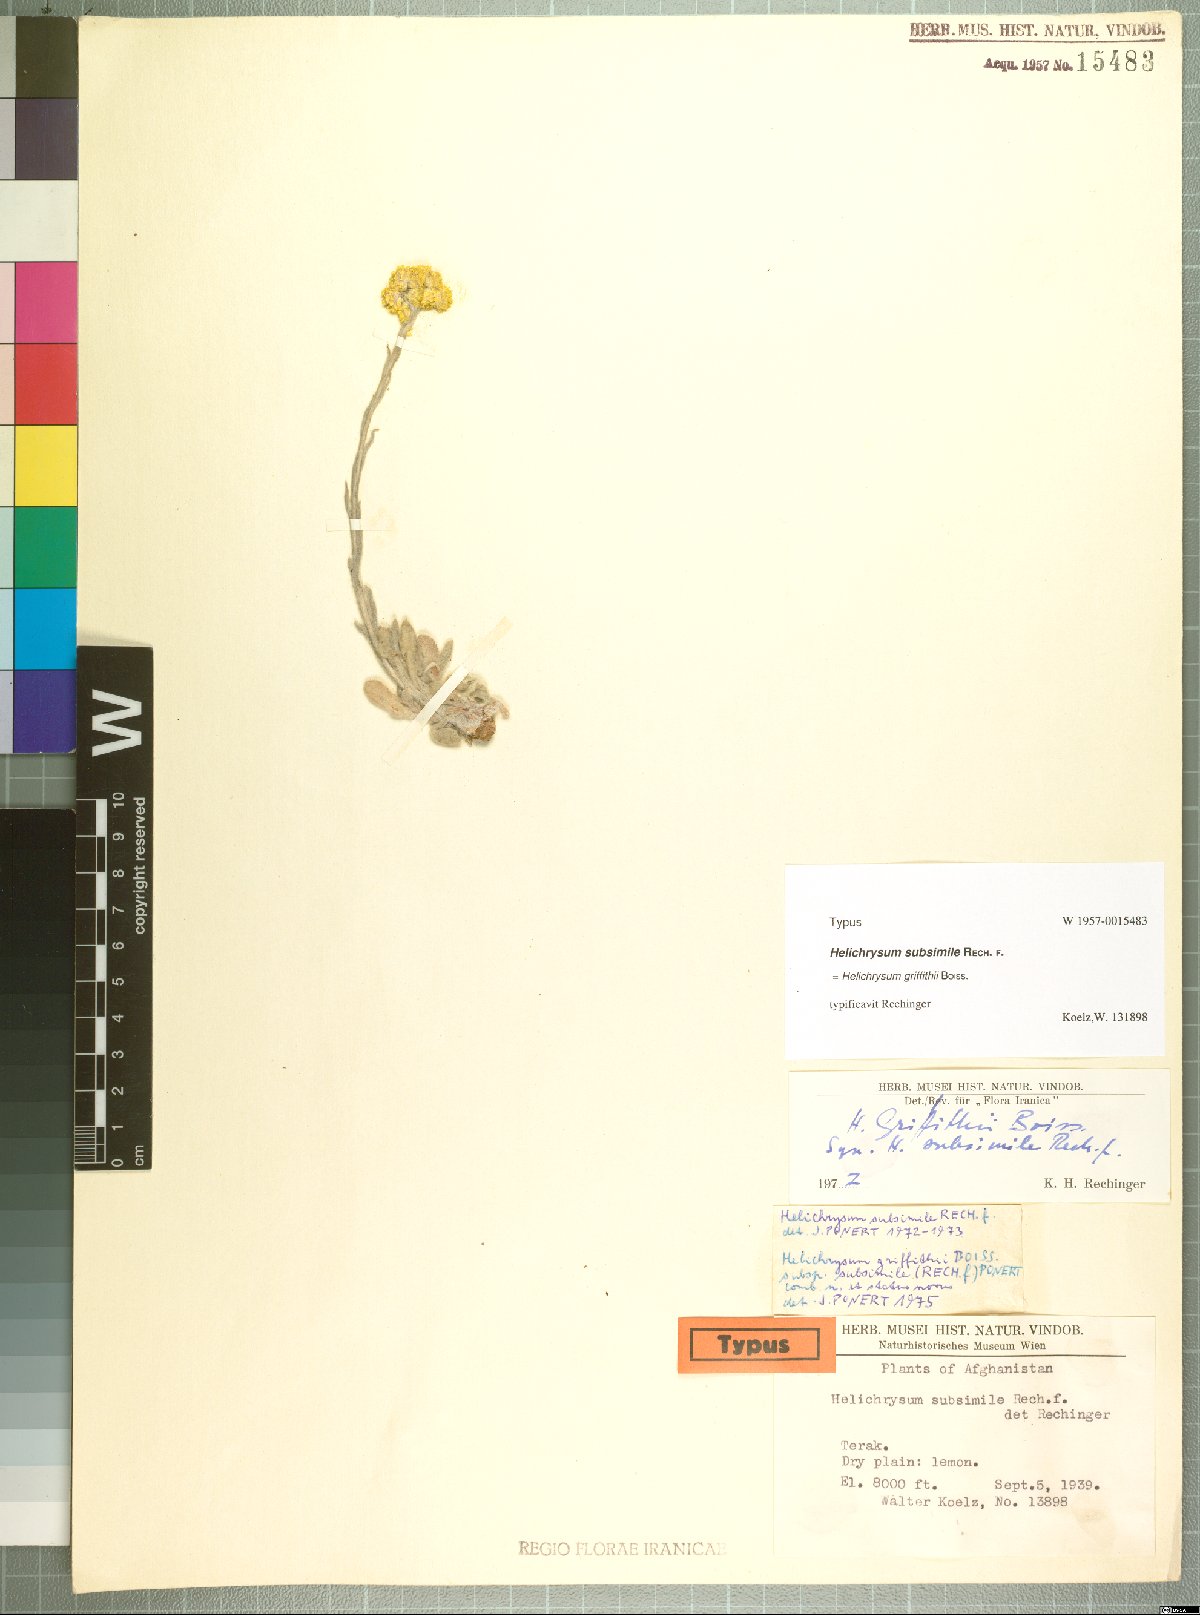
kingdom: Plantae
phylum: Tracheophyta
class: Magnoliopsida
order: Asterales
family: Asteraceae
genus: Pseudognaphalium
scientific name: Pseudognaphalium affine
